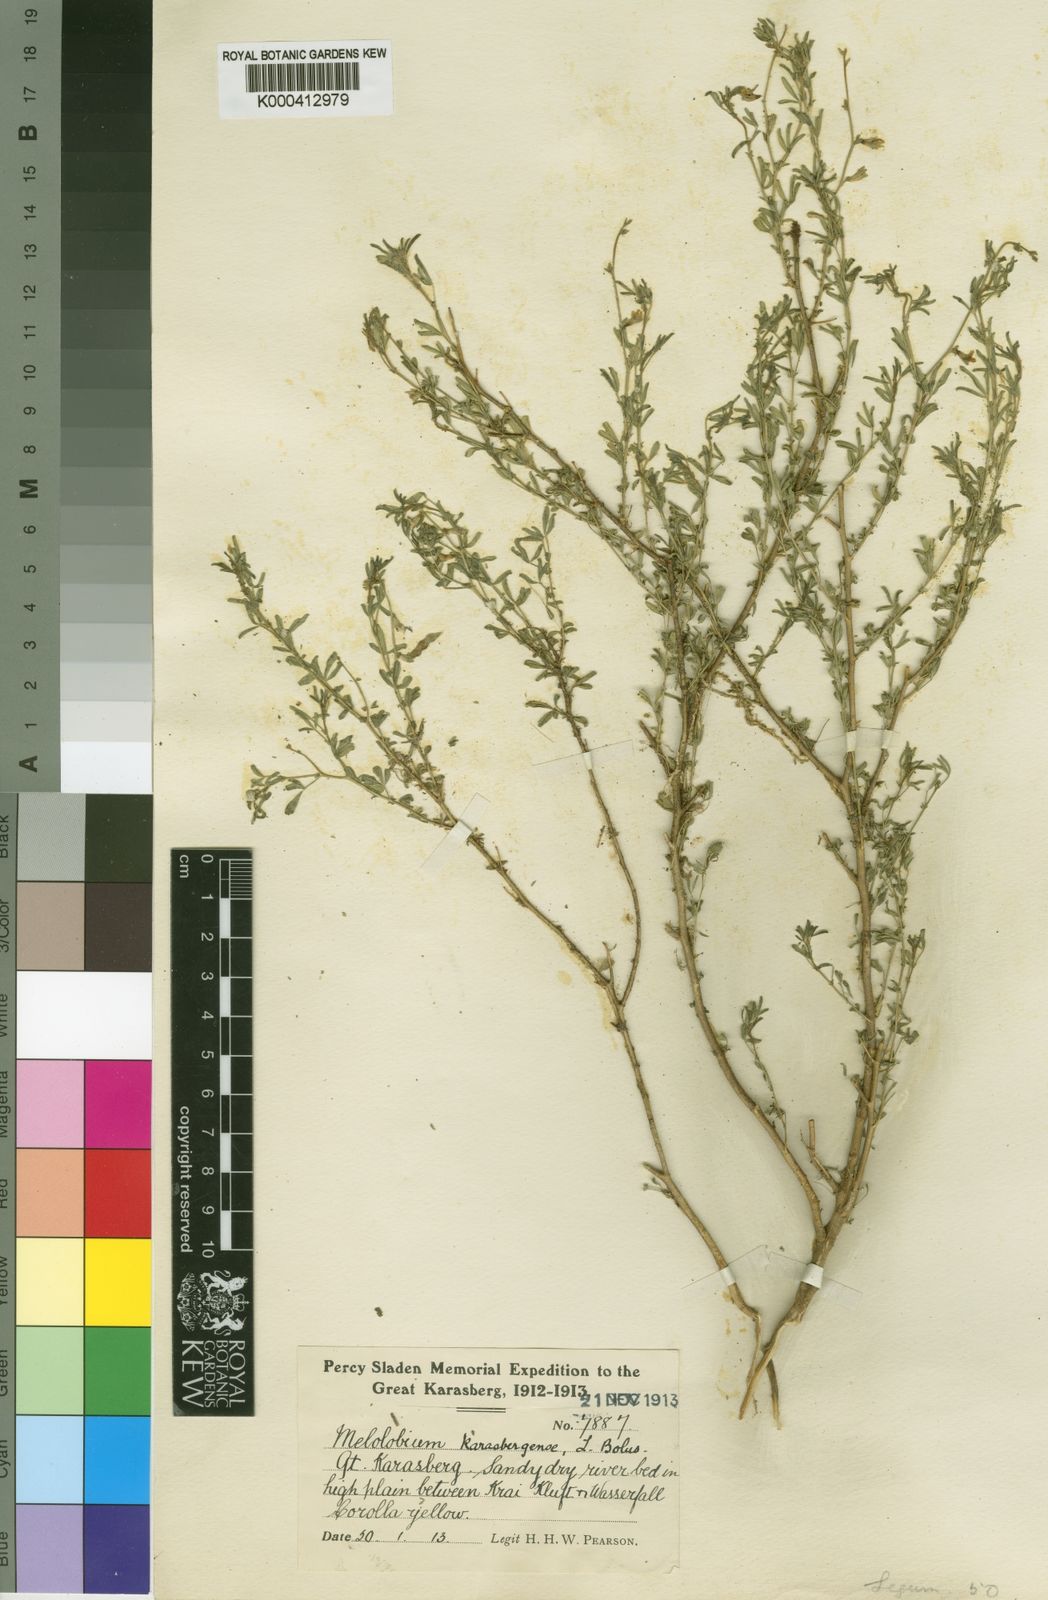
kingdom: Plantae
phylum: Tracheophyta
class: Magnoliopsida
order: Fabales
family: Fabaceae
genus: Melolobium
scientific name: Melolobium adenoides
